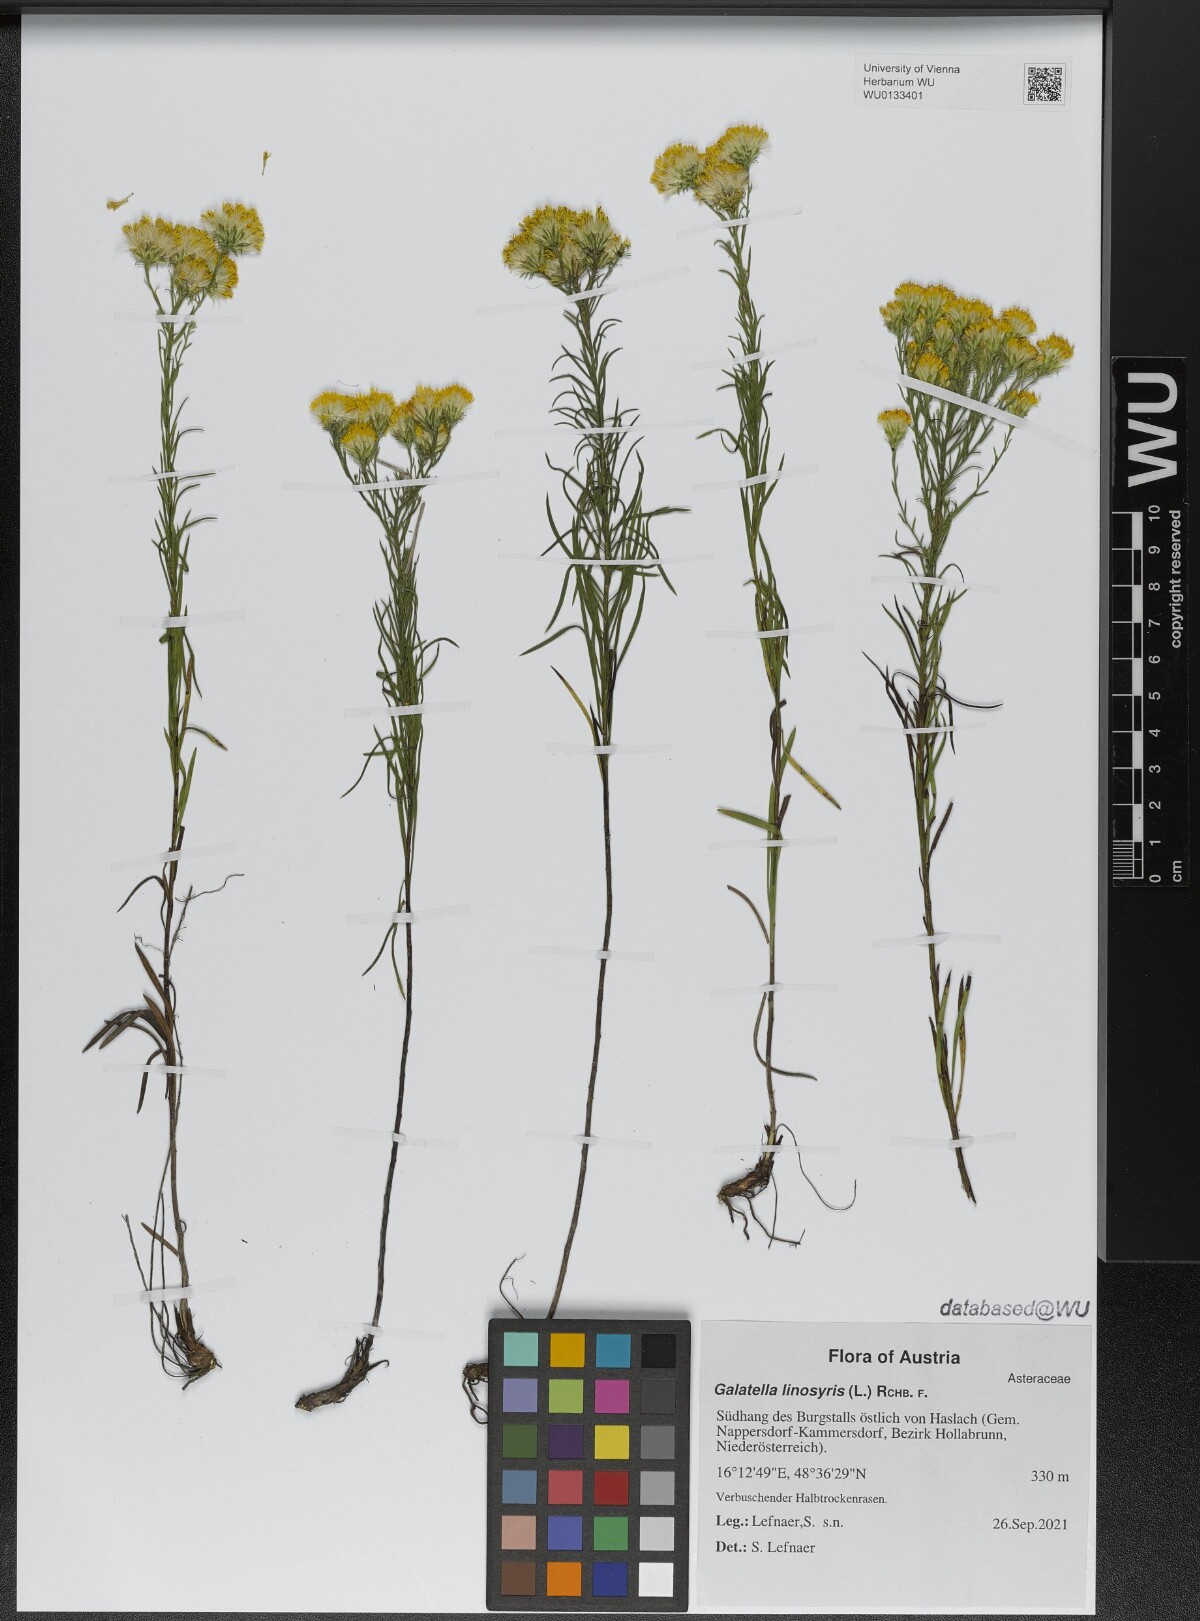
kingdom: Plantae
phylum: Tracheophyta
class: Magnoliopsida
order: Asterales
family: Asteraceae
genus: Galatella
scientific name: Galatella linosyris
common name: Goldilocks aster
